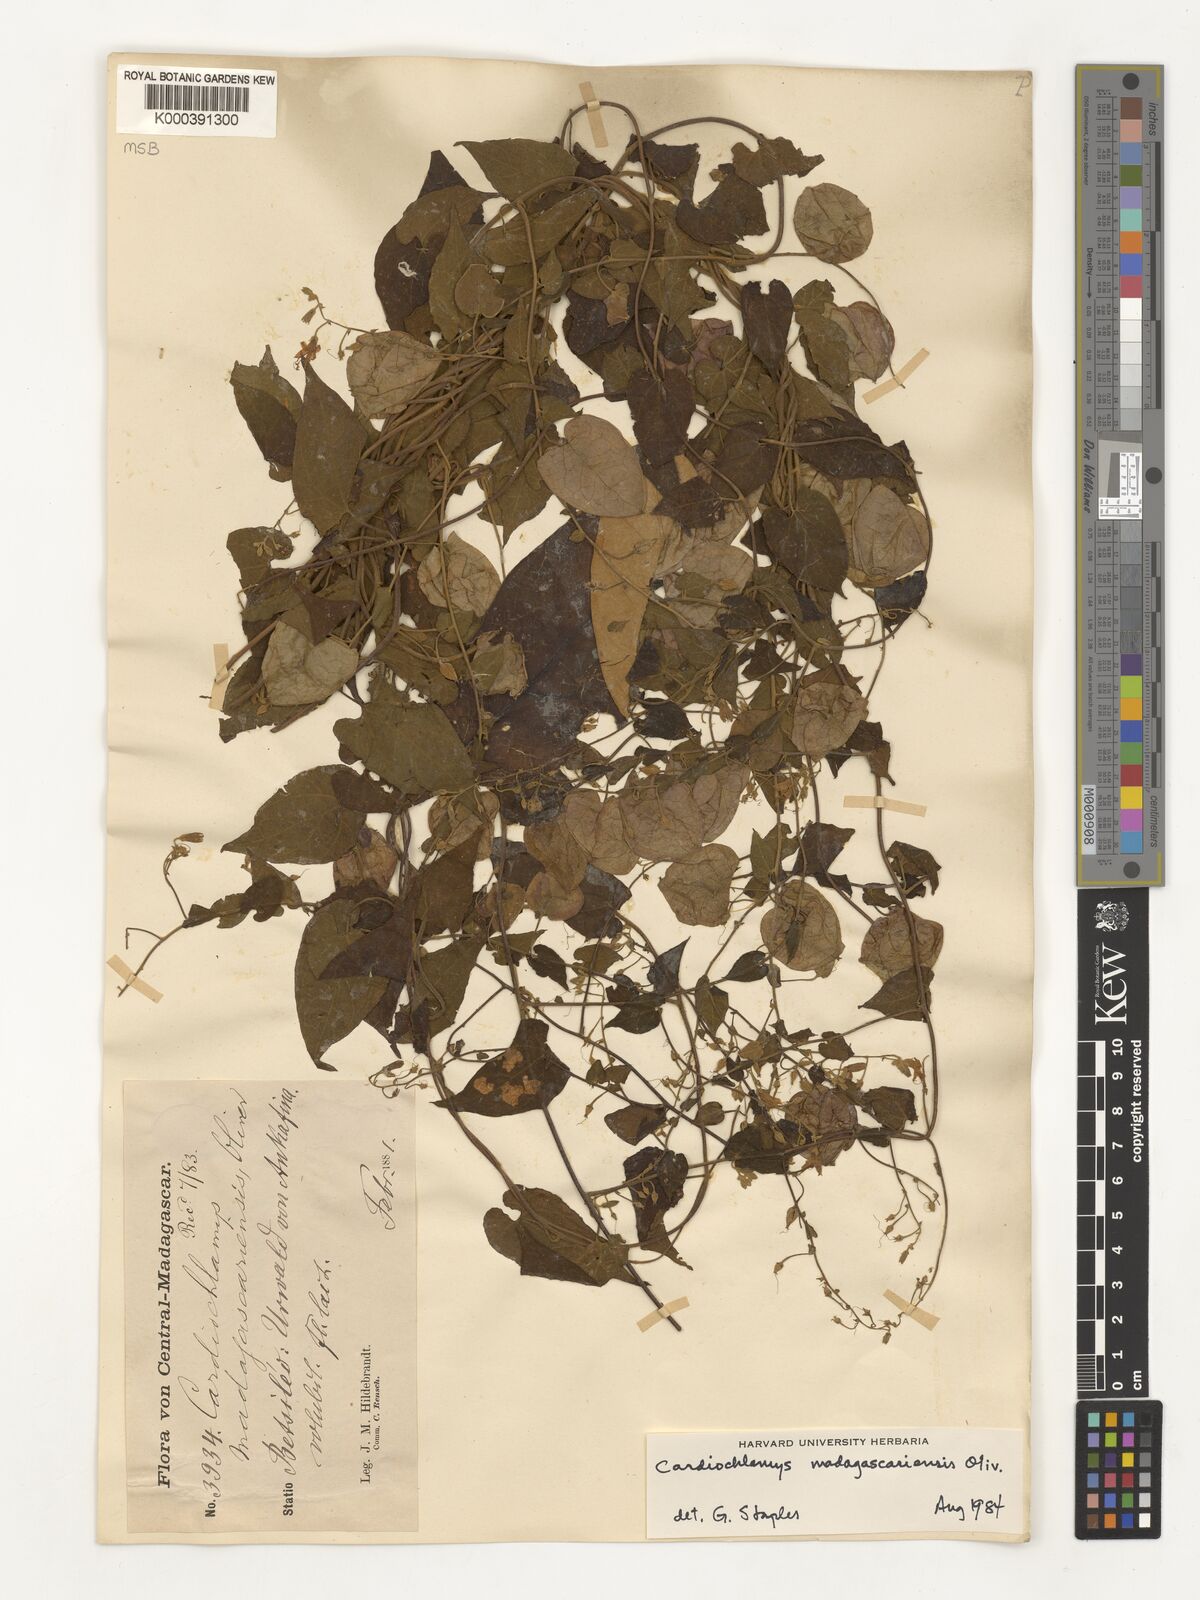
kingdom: Plantae
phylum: Tracheophyta
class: Magnoliopsida
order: Solanales
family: Convolvulaceae
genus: Cardiochlamys
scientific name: Cardiochlamys madagascariensis
